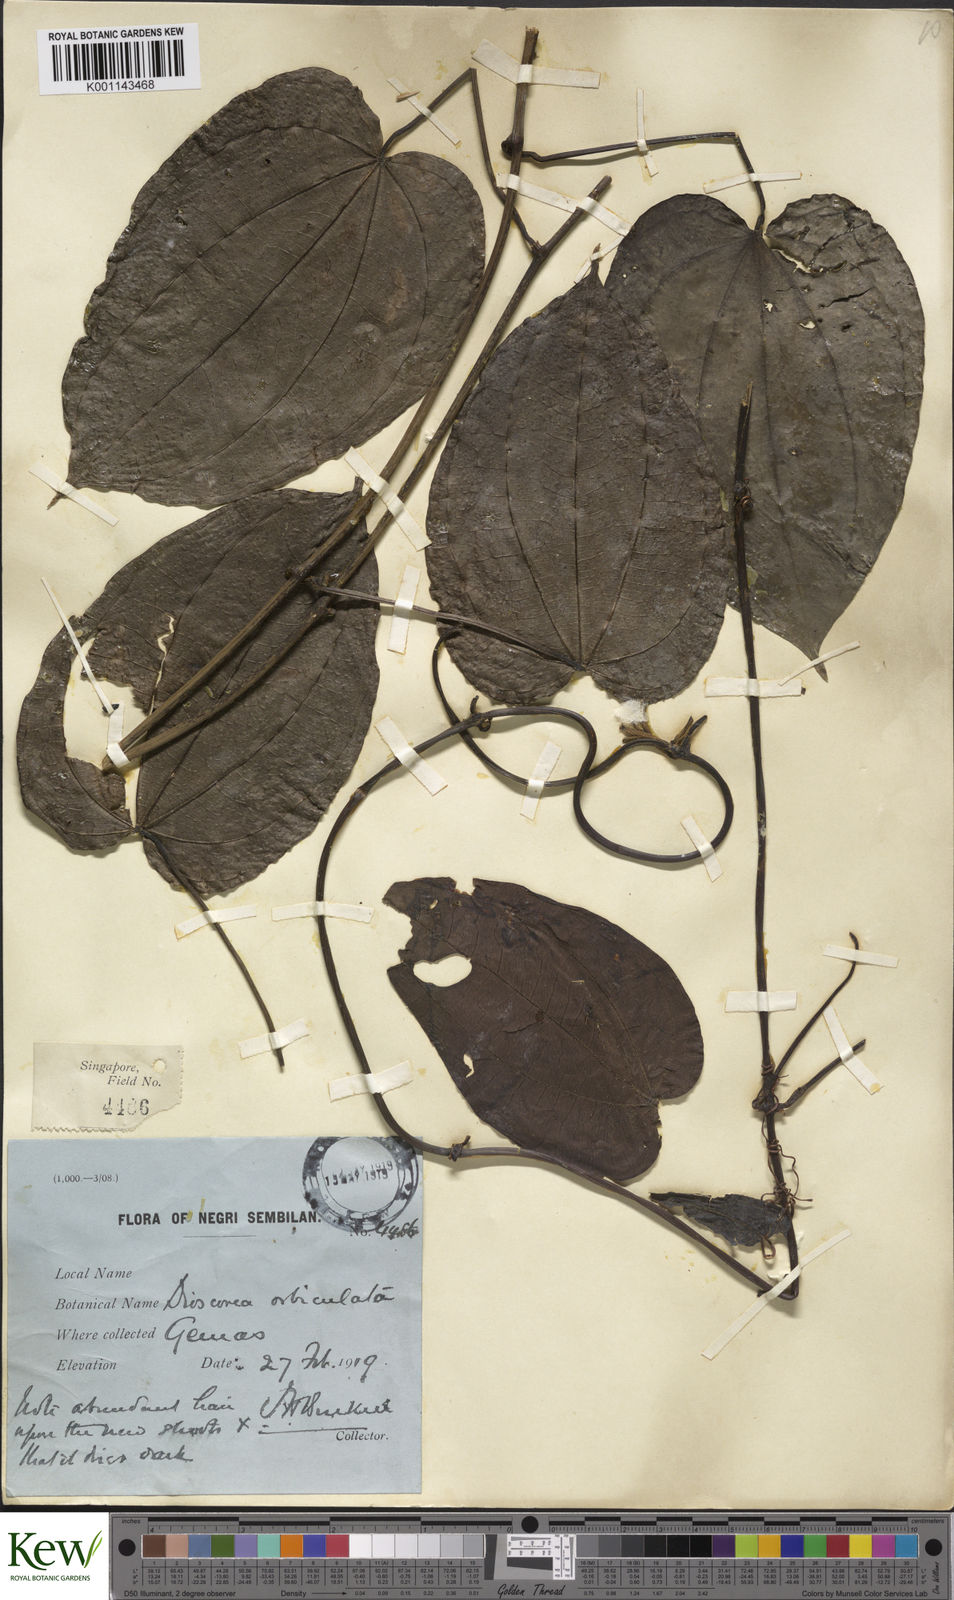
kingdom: Plantae
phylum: Tracheophyta
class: Liliopsida
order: Dioscoreales
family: Dioscoreaceae
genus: Dioscorea
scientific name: Dioscorea orbiculata
